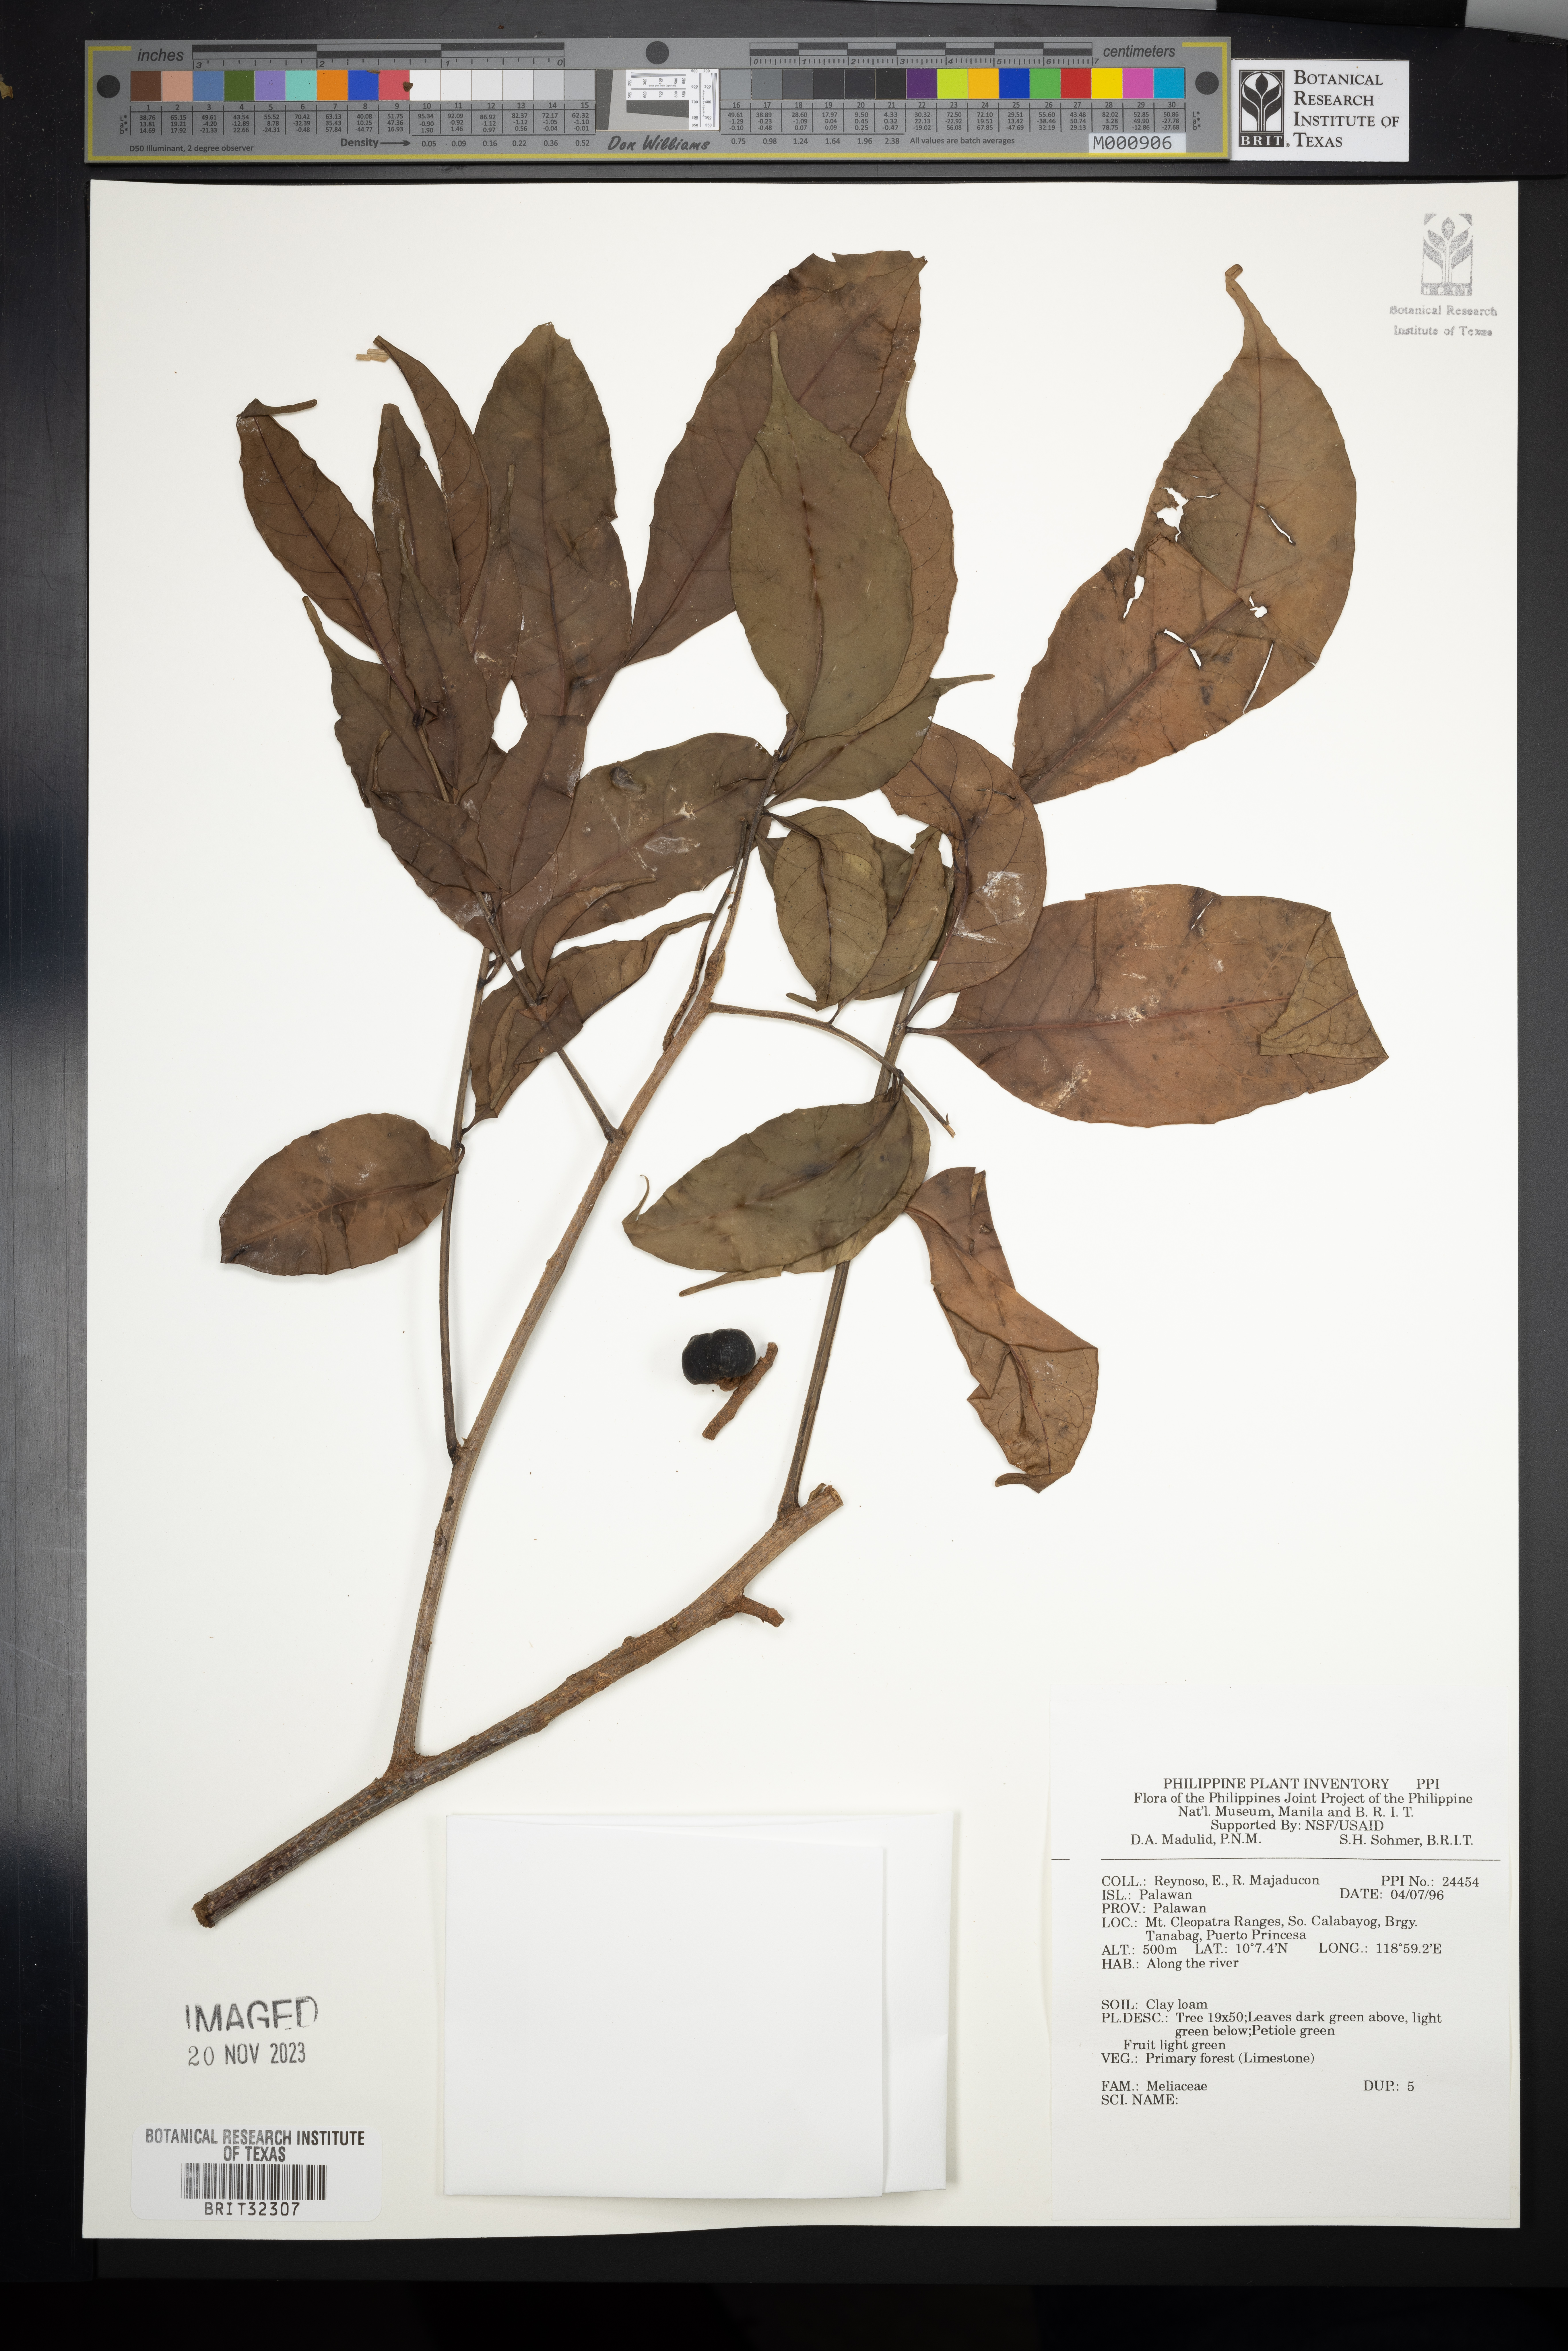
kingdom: Plantae
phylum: Tracheophyta
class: Magnoliopsida
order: Sapindales
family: Meliaceae
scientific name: Meliaceae
